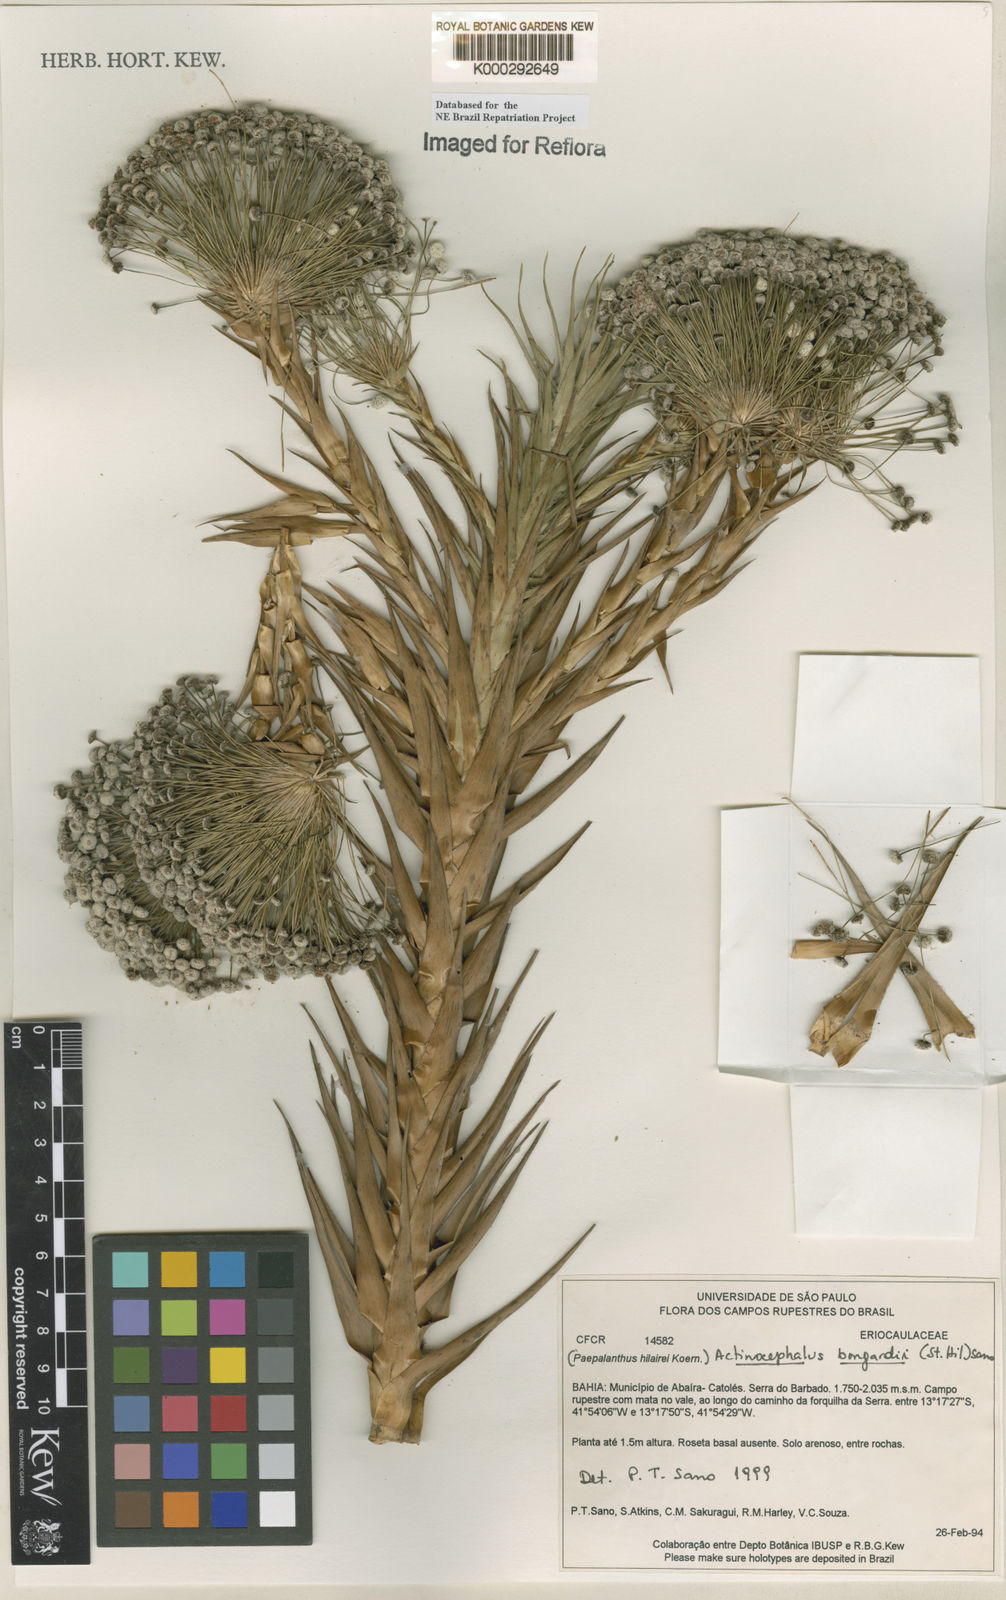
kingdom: Plantae
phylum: Tracheophyta
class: Liliopsida
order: Poales
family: Eriocaulaceae
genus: Paepalanthus
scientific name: Paepalanthus hilairei
